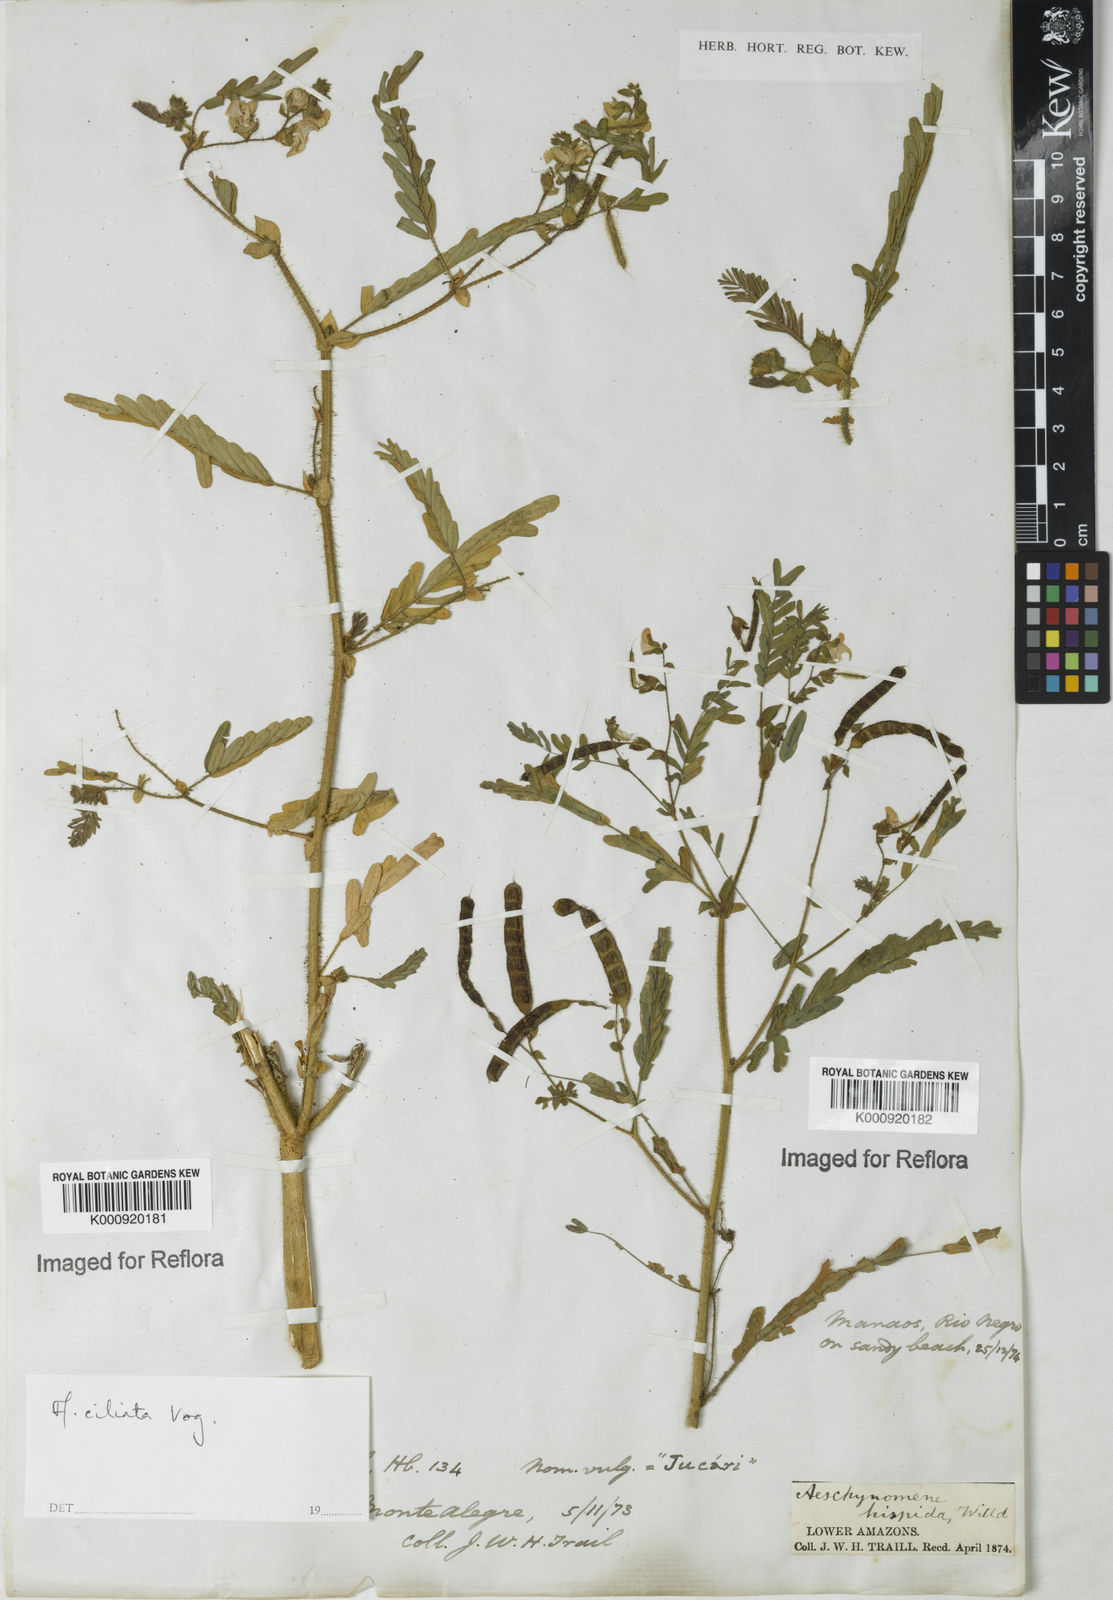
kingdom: Plantae
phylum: Tracheophyta
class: Magnoliopsida
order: Fabales
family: Fabaceae
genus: Aeschynomene
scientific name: Aeschynomene ciliata
